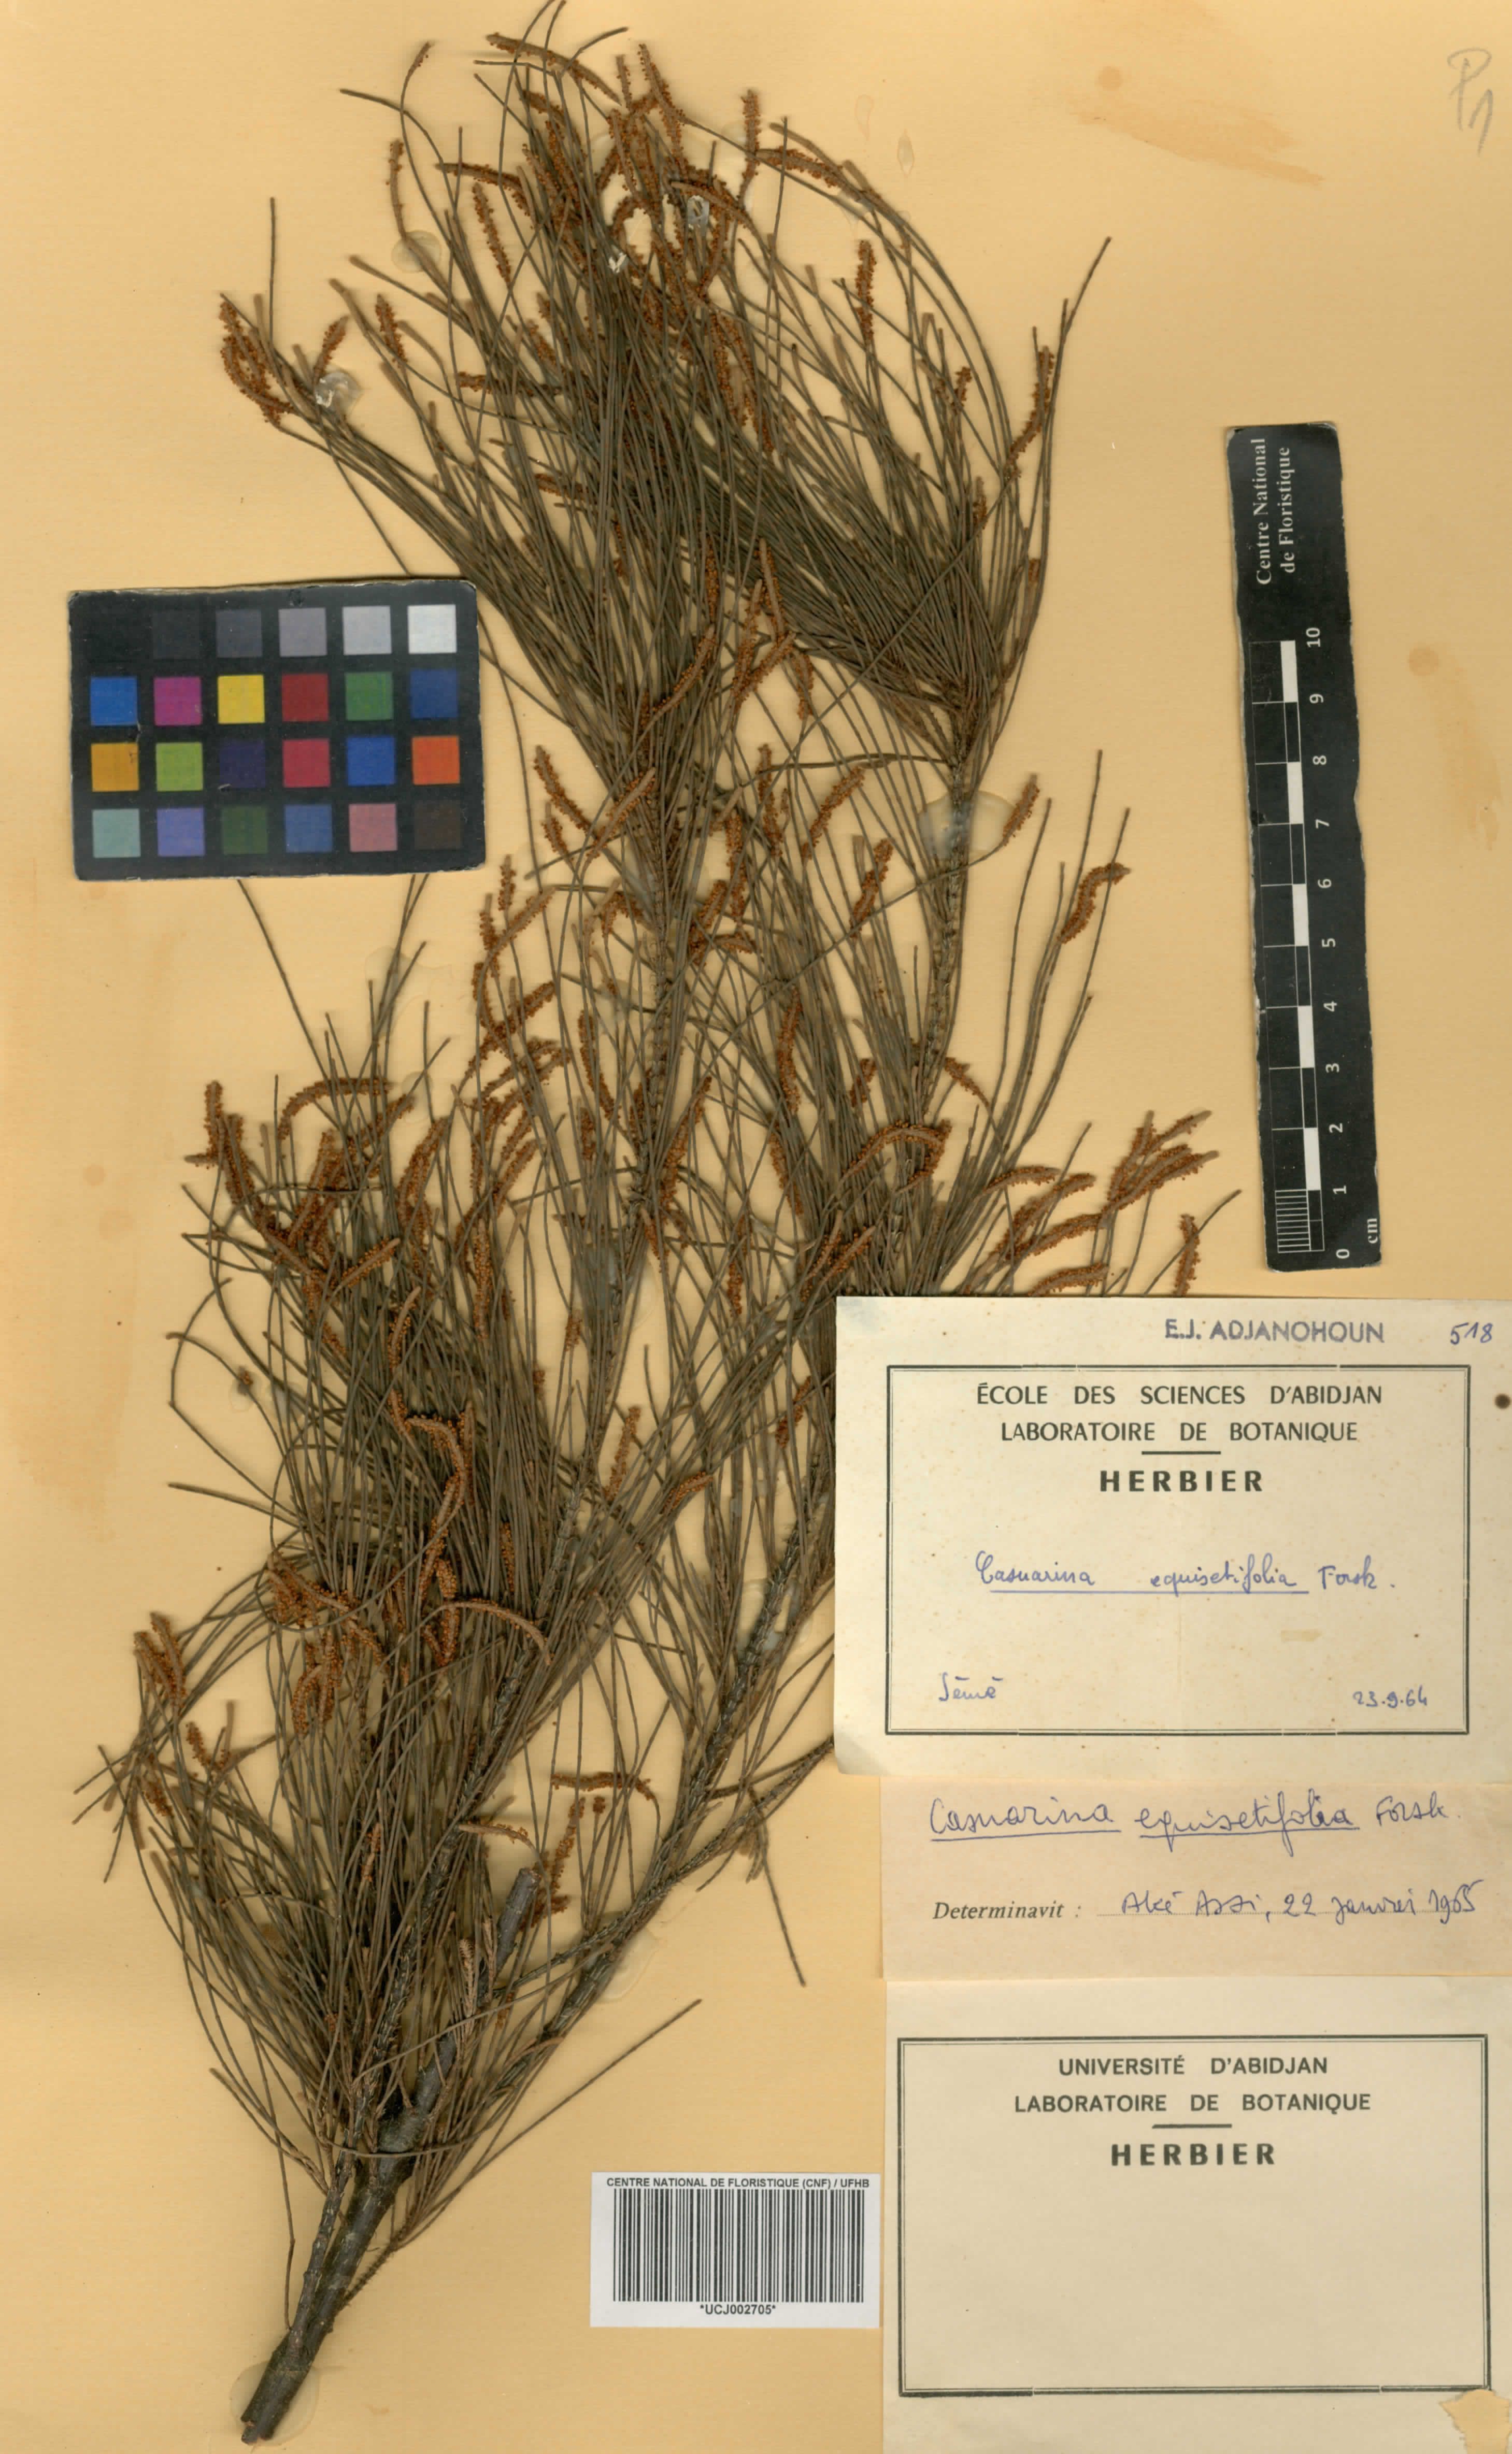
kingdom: Plantae
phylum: Tracheophyta
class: Magnoliopsida
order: Fagales
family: Casuarinaceae
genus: Casuarina
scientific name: Casuarina equisetifolia
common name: Beach sheoak
